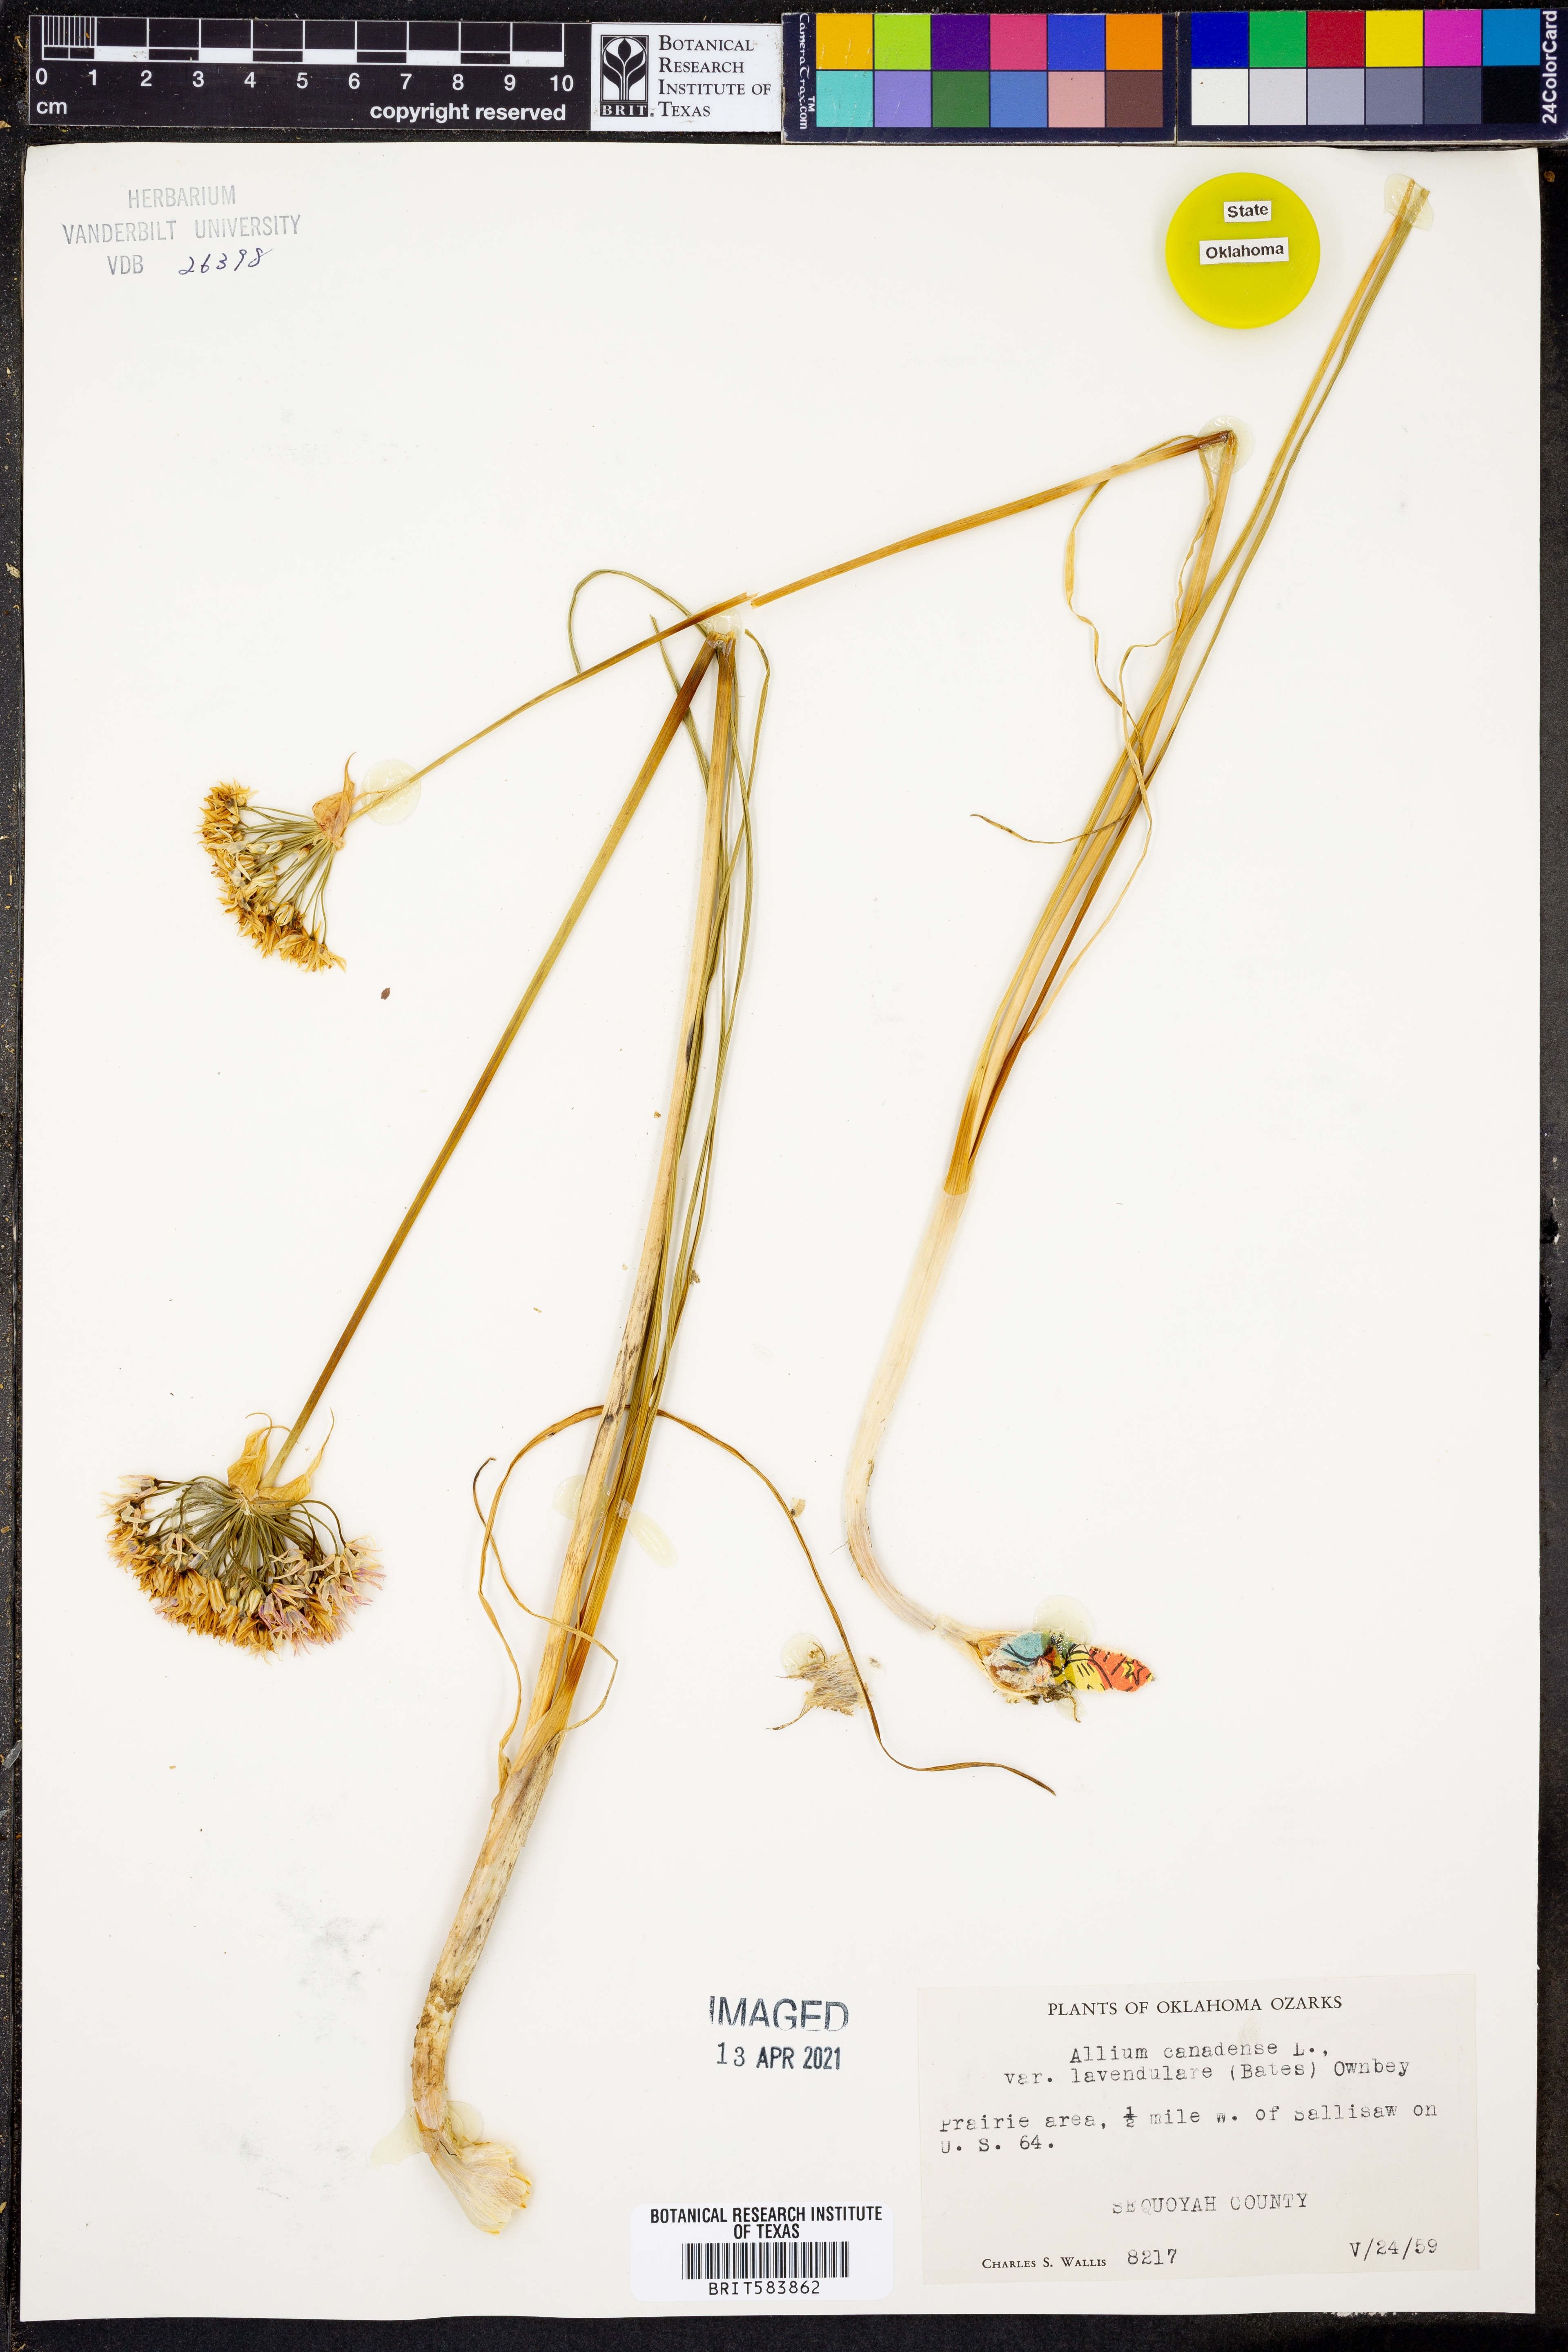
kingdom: Plantae
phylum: Tracheophyta
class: Liliopsida
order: Asparagales
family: Amaryllidaceae
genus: Allium
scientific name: Allium canadense
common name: Meadow garlic
